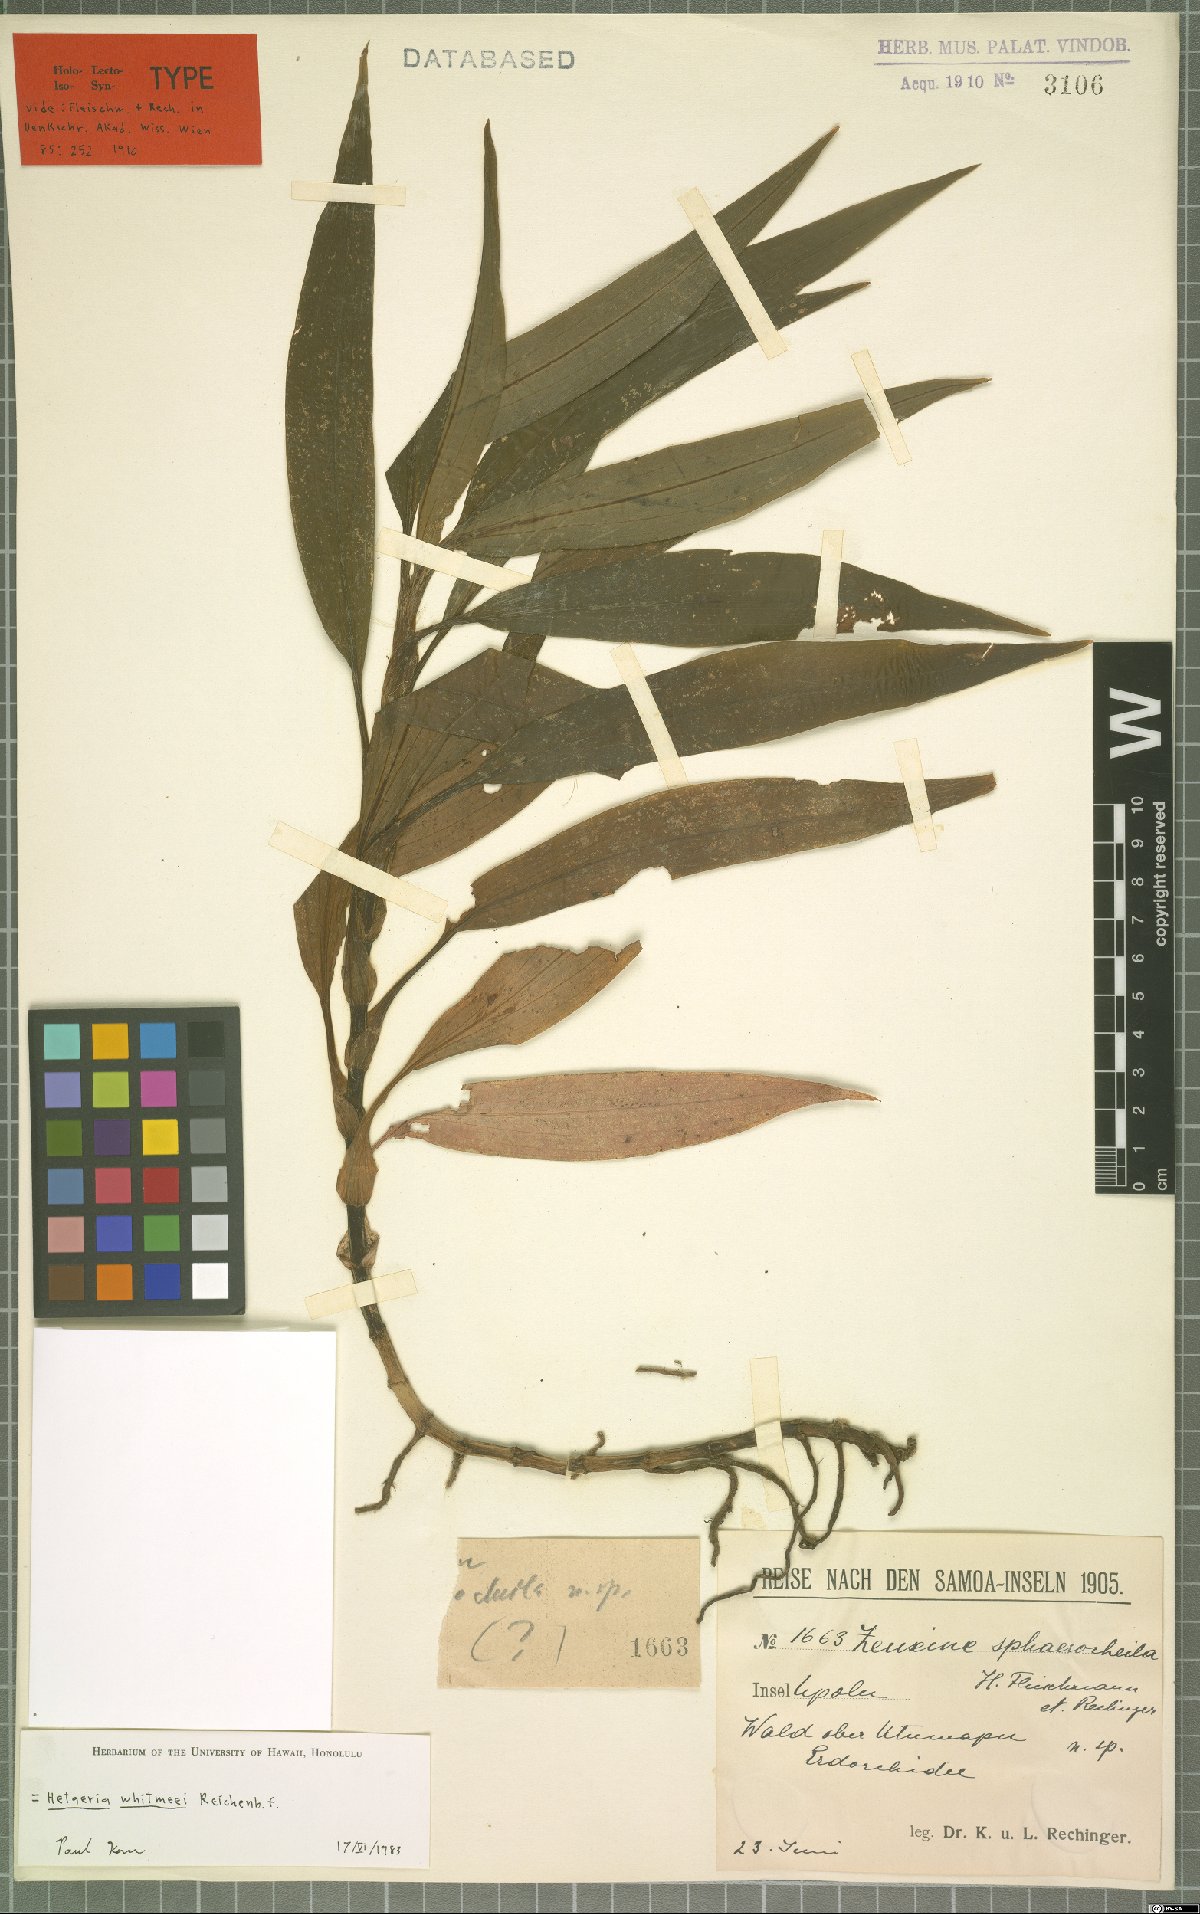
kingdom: Plantae
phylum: Tracheophyta
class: Liliopsida
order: Asparagales
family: Orchidaceae
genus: Hetaeria
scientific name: Hetaeria whitmeei
